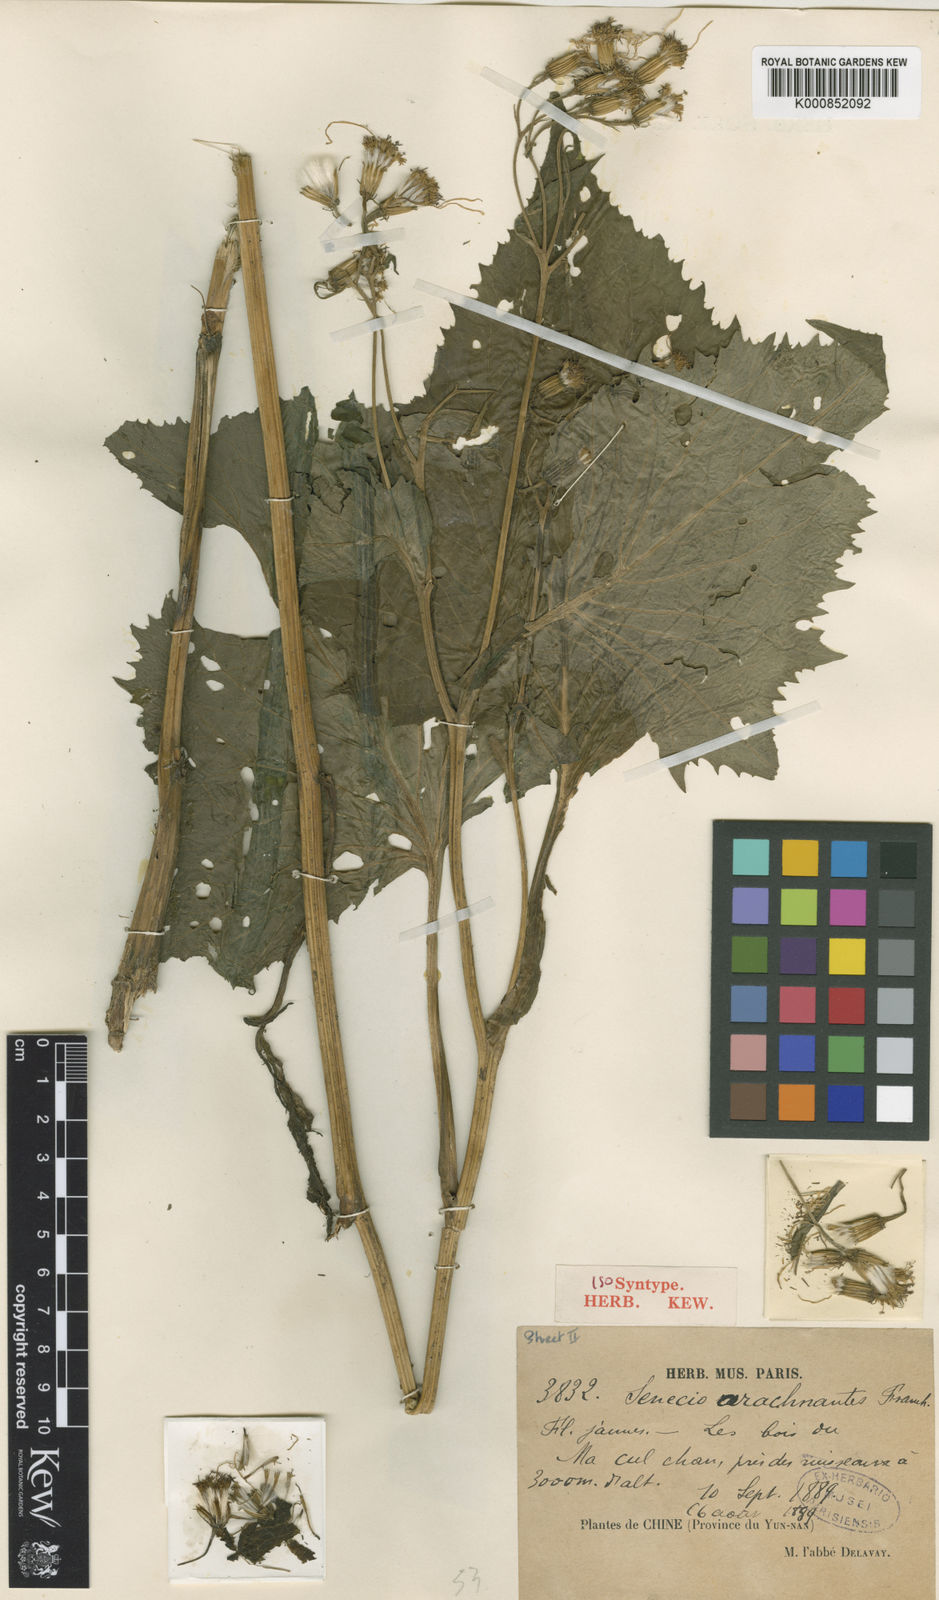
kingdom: Plantae
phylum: Tracheophyta
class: Magnoliopsida
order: Asterales
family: Asteraceae
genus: Senecio
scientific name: Senecio arachnanthus
